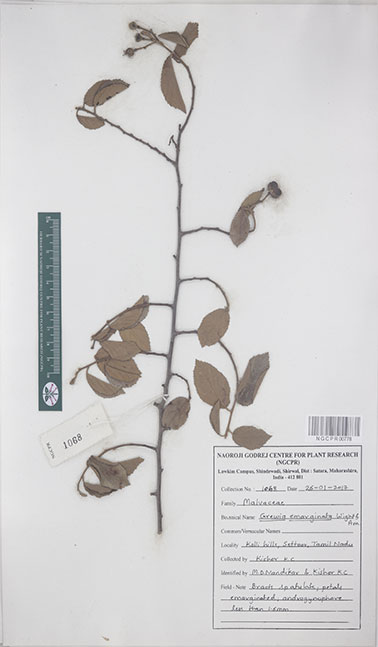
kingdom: Plantae
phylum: Tracheophyta
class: Magnoliopsida
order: Malvales
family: Malvaceae
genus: Grewia
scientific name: Grewia oppositifolia
